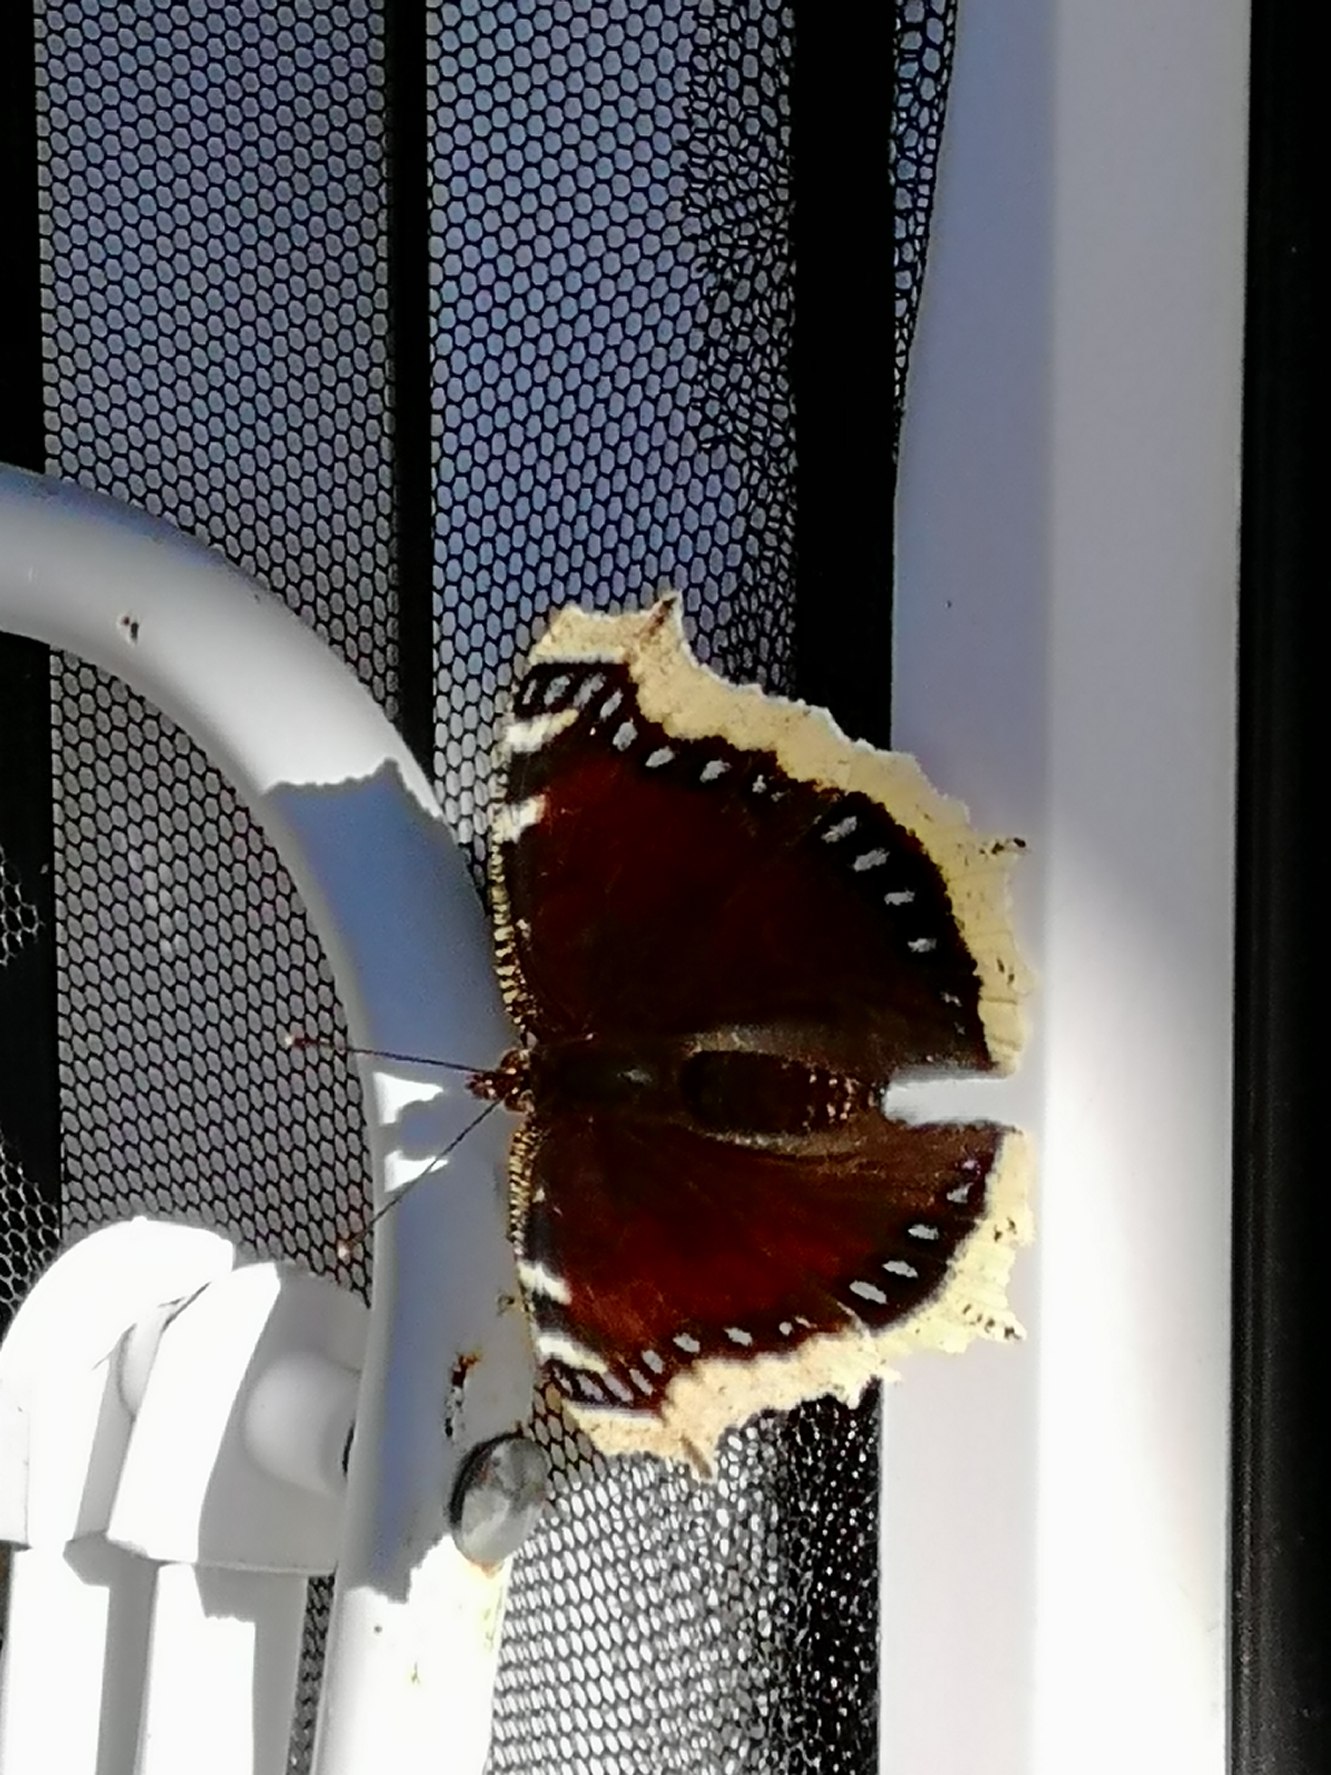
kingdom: Animalia
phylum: Arthropoda
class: Insecta
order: Lepidoptera
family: Nymphalidae
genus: Nymphalis
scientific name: Nymphalis antiopa
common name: Sørgekåbe
